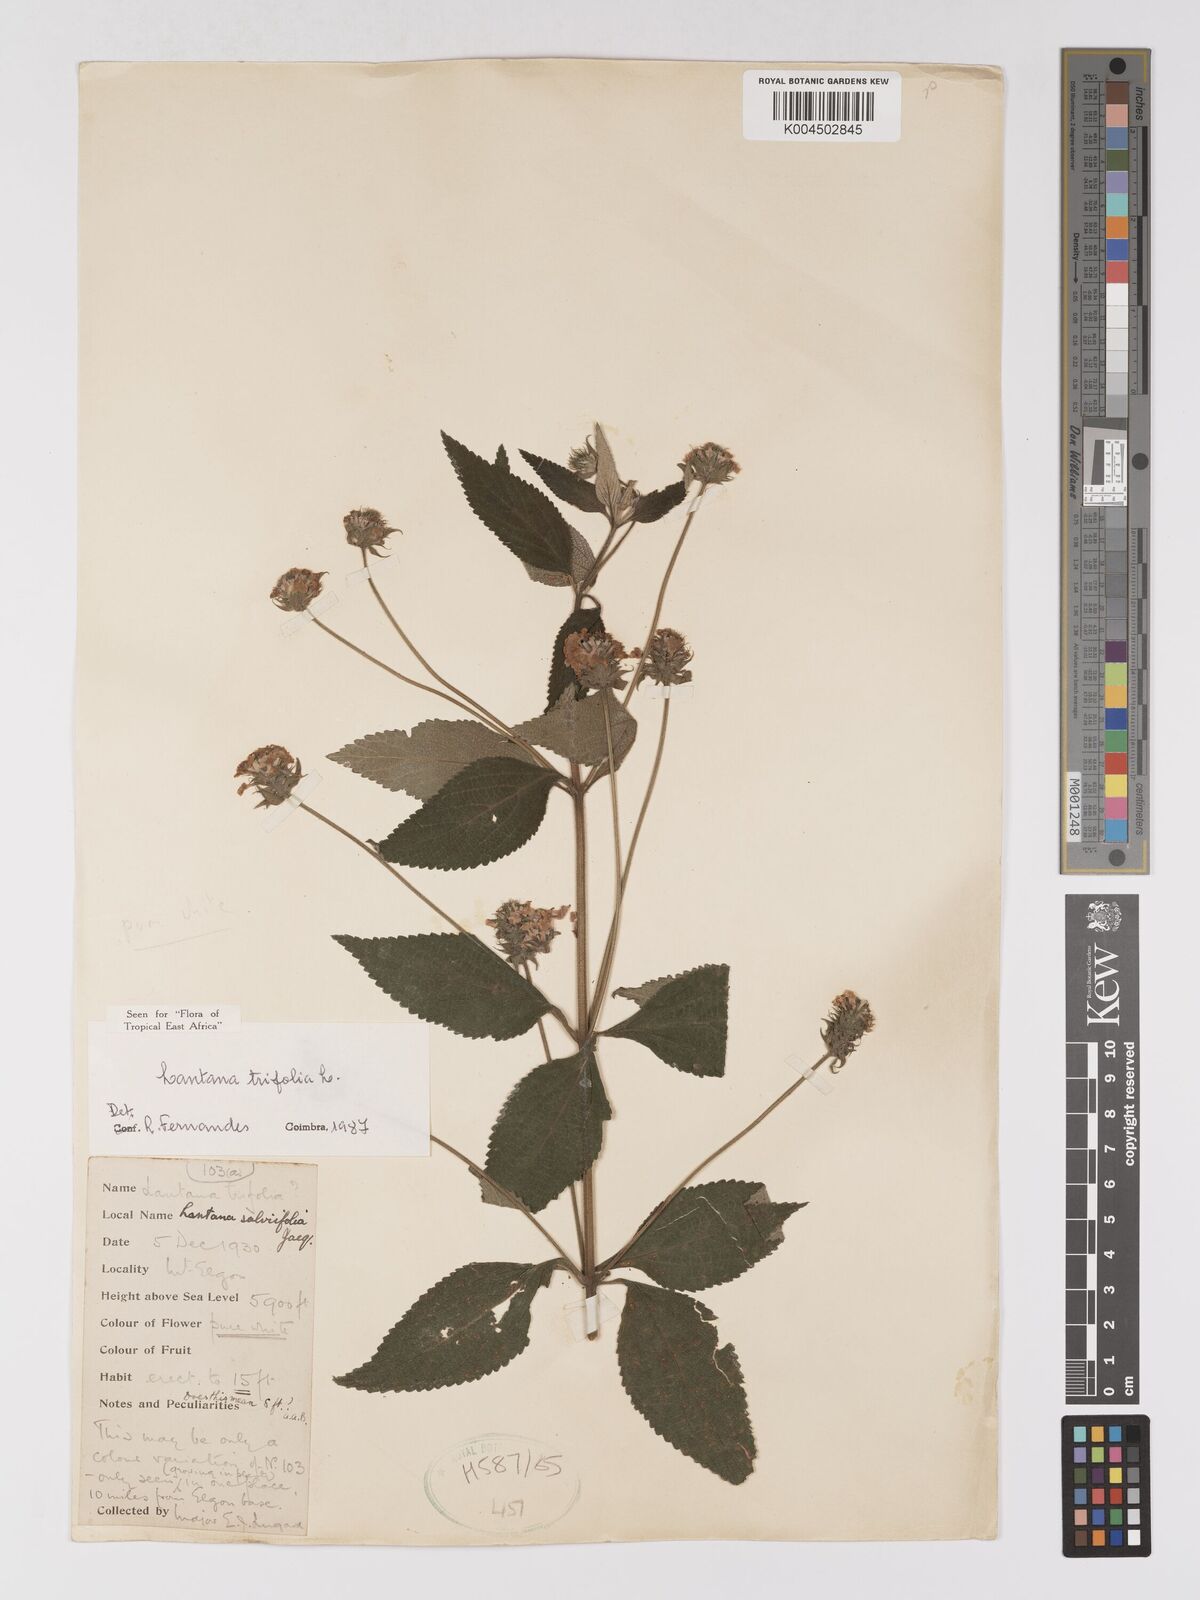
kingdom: Plantae
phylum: Tracheophyta
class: Magnoliopsida
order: Lamiales
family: Verbenaceae
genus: Lantana
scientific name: Lantana trifolia
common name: Sweet-sage
